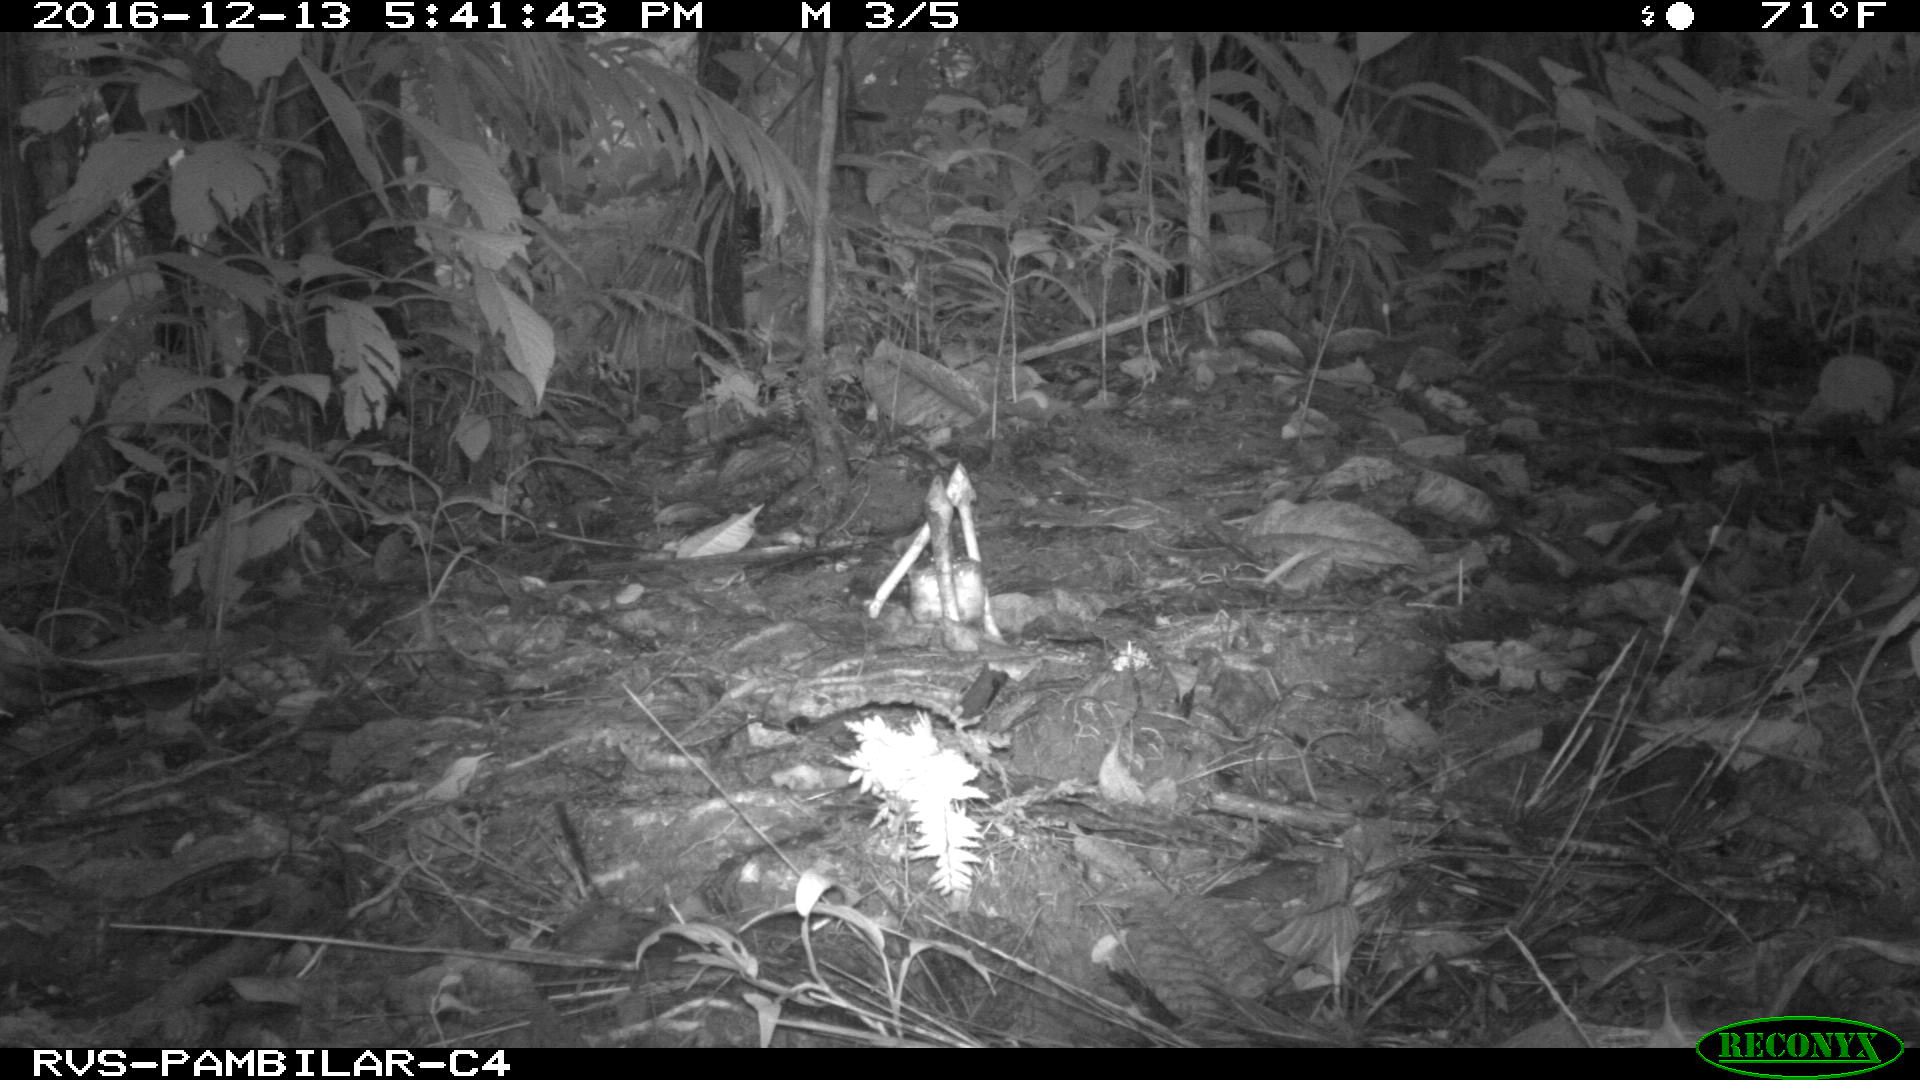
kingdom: Animalia
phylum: Chordata
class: Mammalia
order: Rodentia
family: Dasyproctidae
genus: Dasyprocta
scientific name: Dasyprocta punctata
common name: Central american agouti
